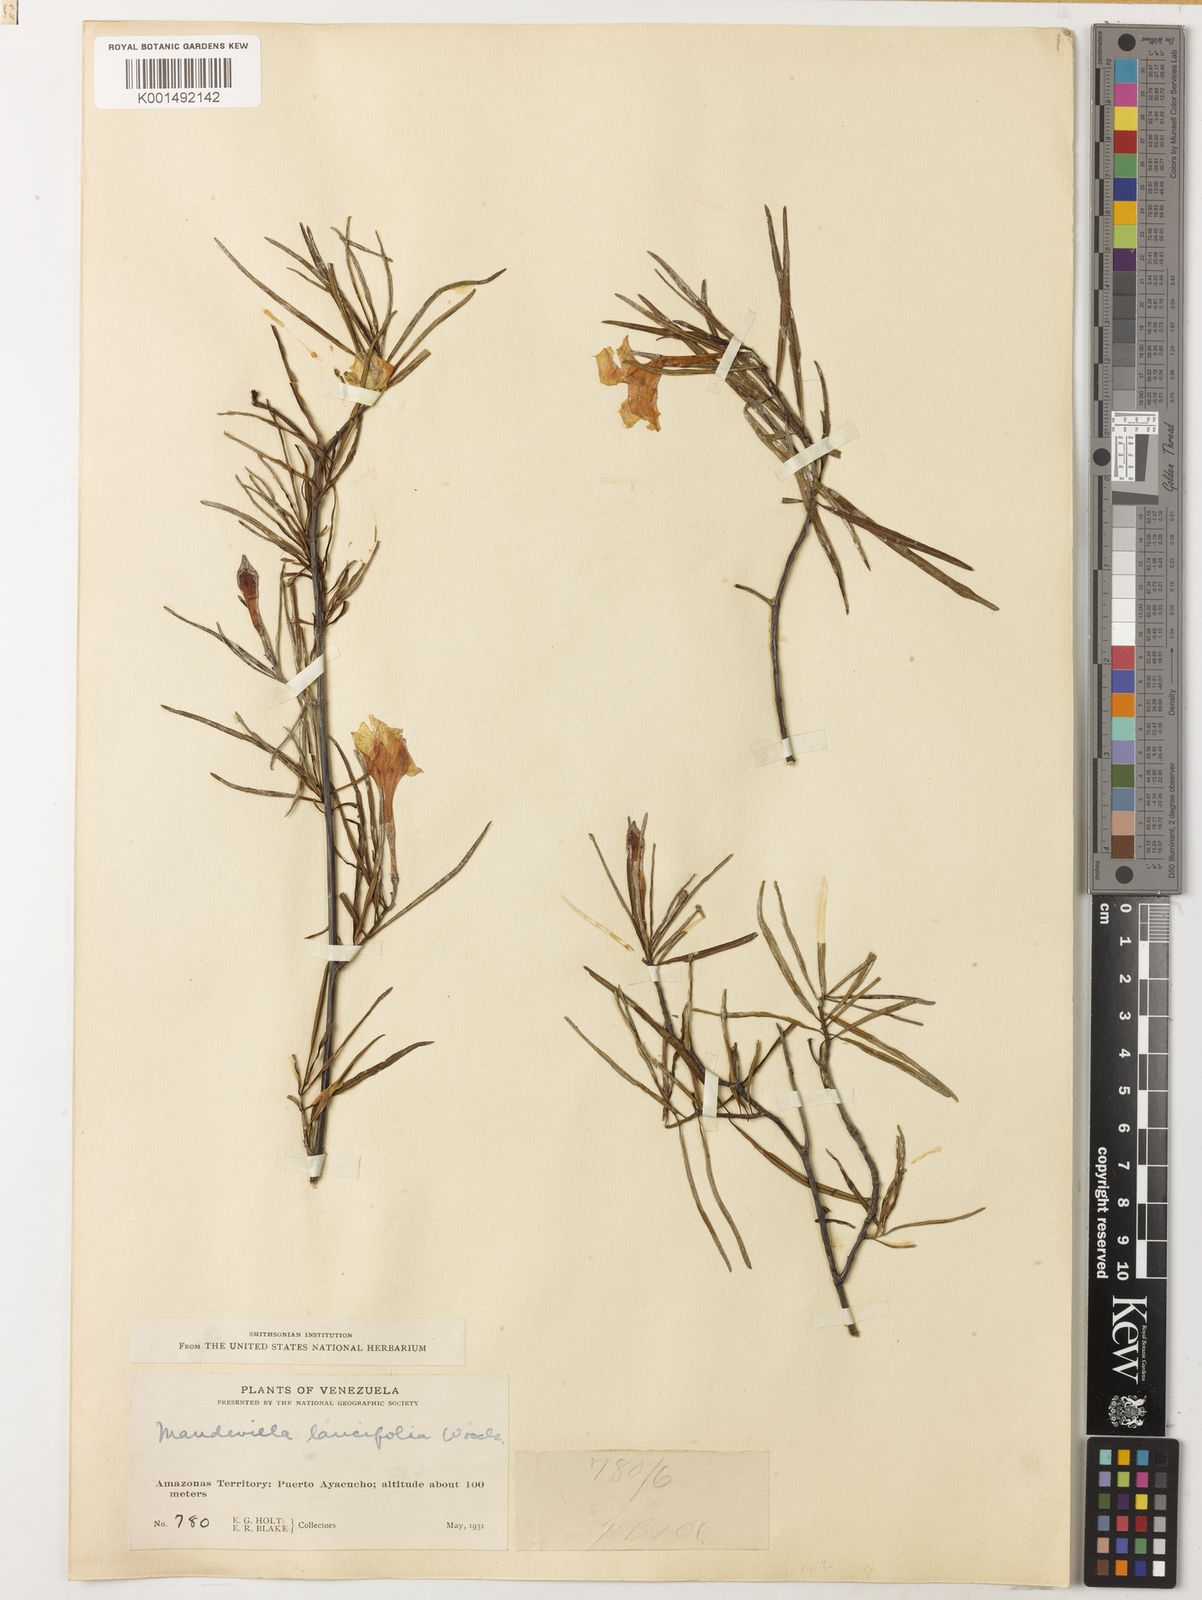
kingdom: Plantae
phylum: Tracheophyta
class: Magnoliopsida
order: Gentianales
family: Apocynaceae
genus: Mandevilla
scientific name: Mandevilla lancifolia
